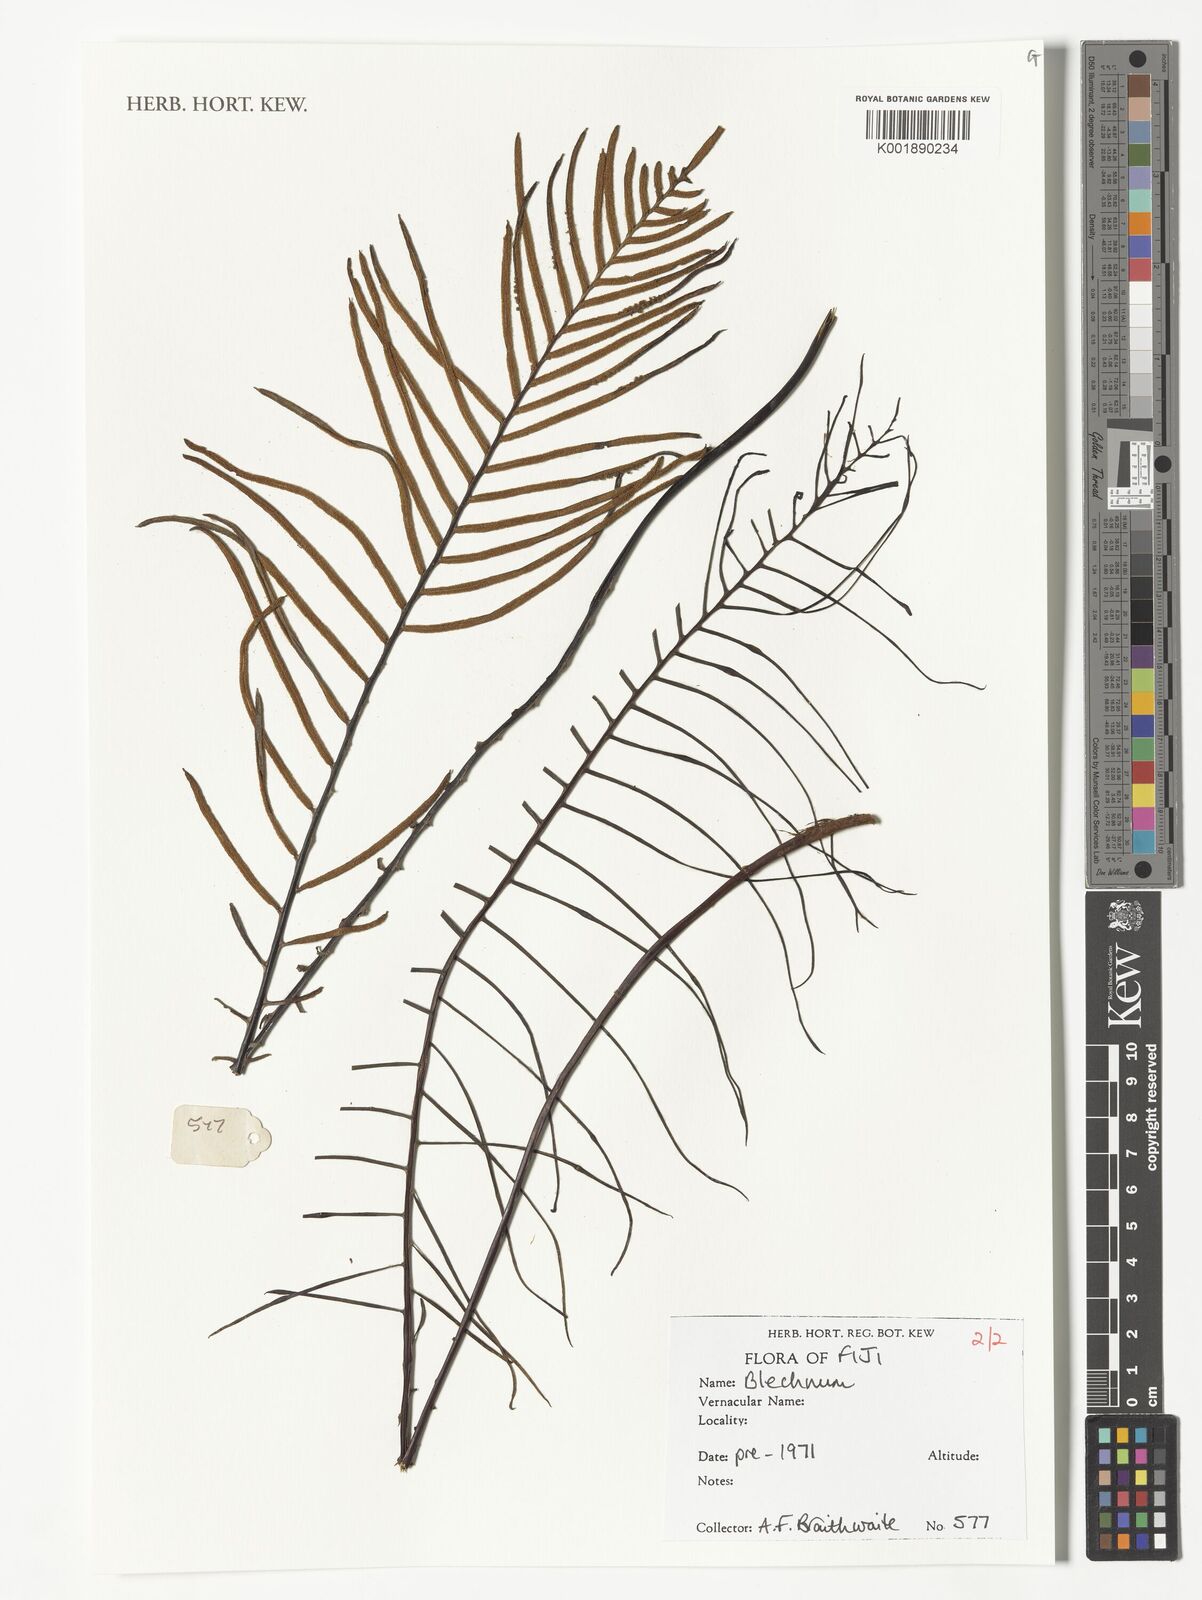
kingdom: Plantae
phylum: Tracheophyta
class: Polypodiopsida
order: Polypodiales
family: Blechnaceae
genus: Blechnum
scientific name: Blechnum
